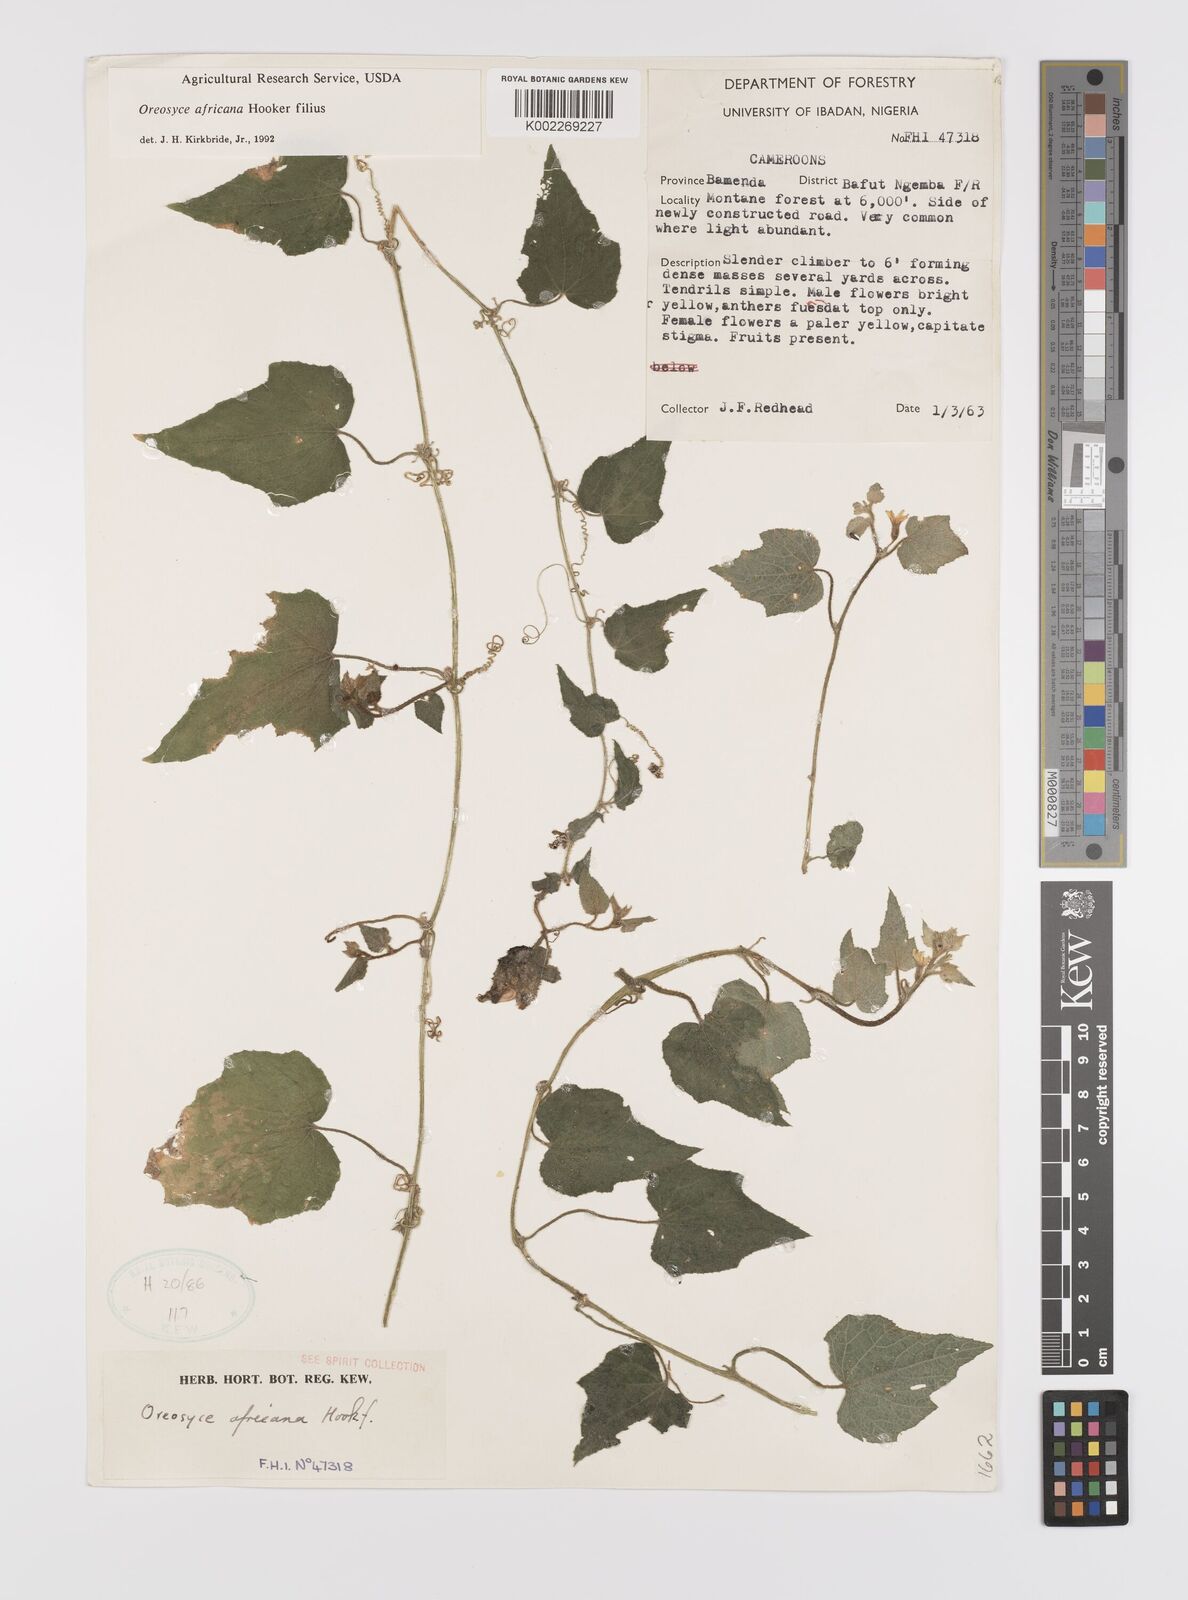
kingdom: Plantae
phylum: Tracheophyta
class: Magnoliopsida
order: Cucurbitales
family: Cucurbitaceae
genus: Cucumis
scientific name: Cucumis oreosyce
